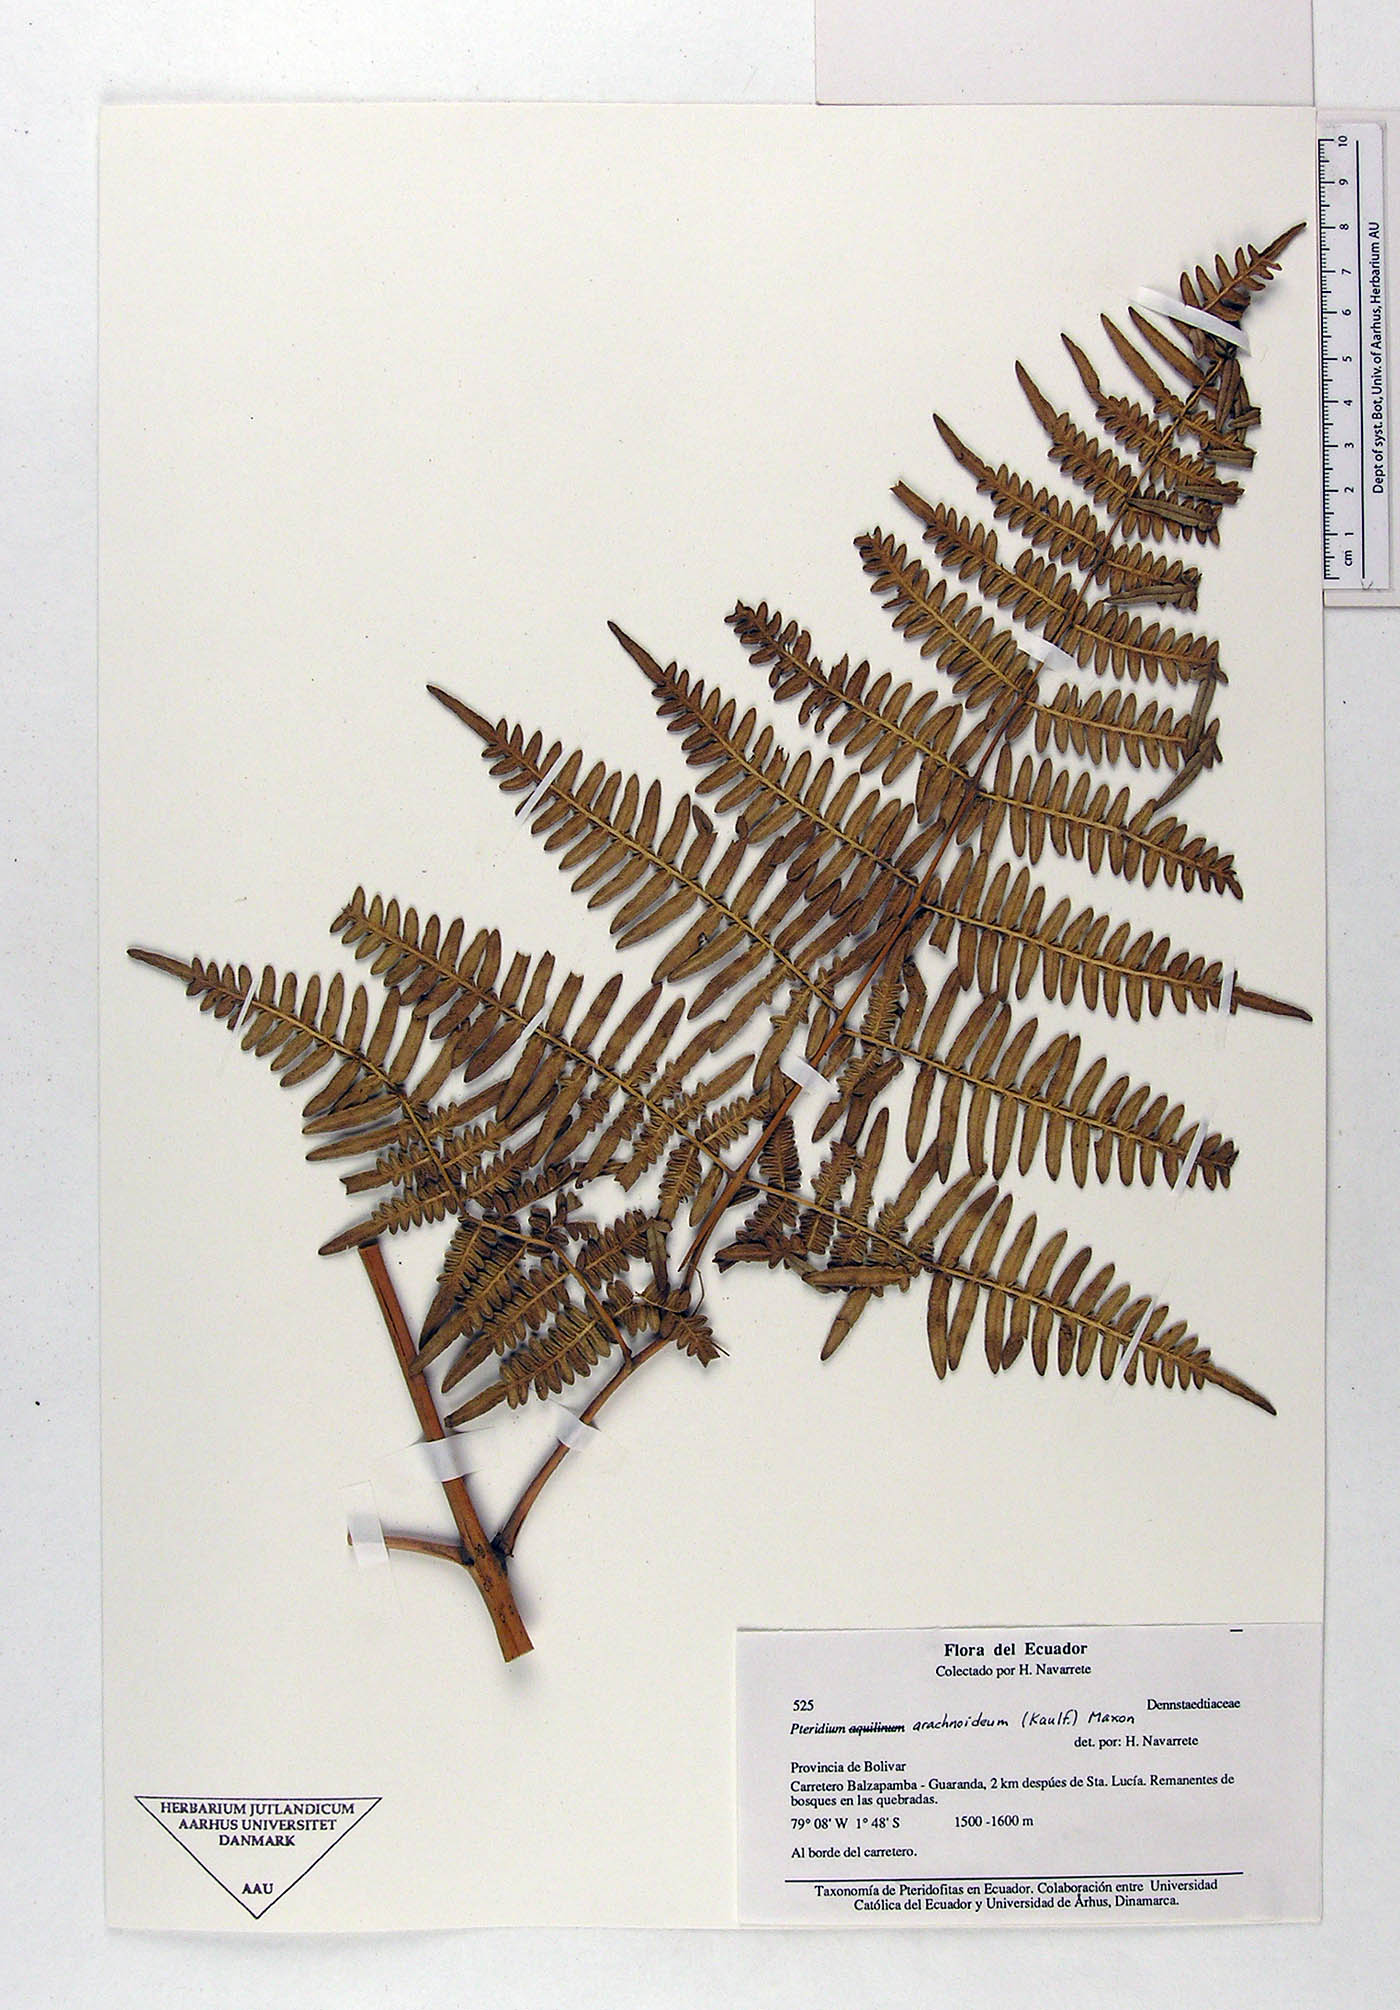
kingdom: Plantae
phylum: Tracheophyta
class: Polypodiopsida
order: Polypodiales
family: Dennstaedtiaceae
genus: Pteridium
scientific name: Pteridium
